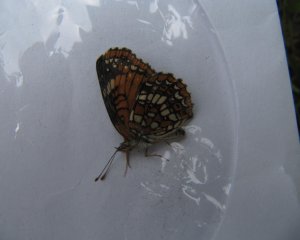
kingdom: Animalia
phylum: Arthropoda
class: Insecta
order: Lepidoptera
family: Nymphalidae
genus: Chlosyne
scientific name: Chlosyne harrisii
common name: Harris's Checkerspot
